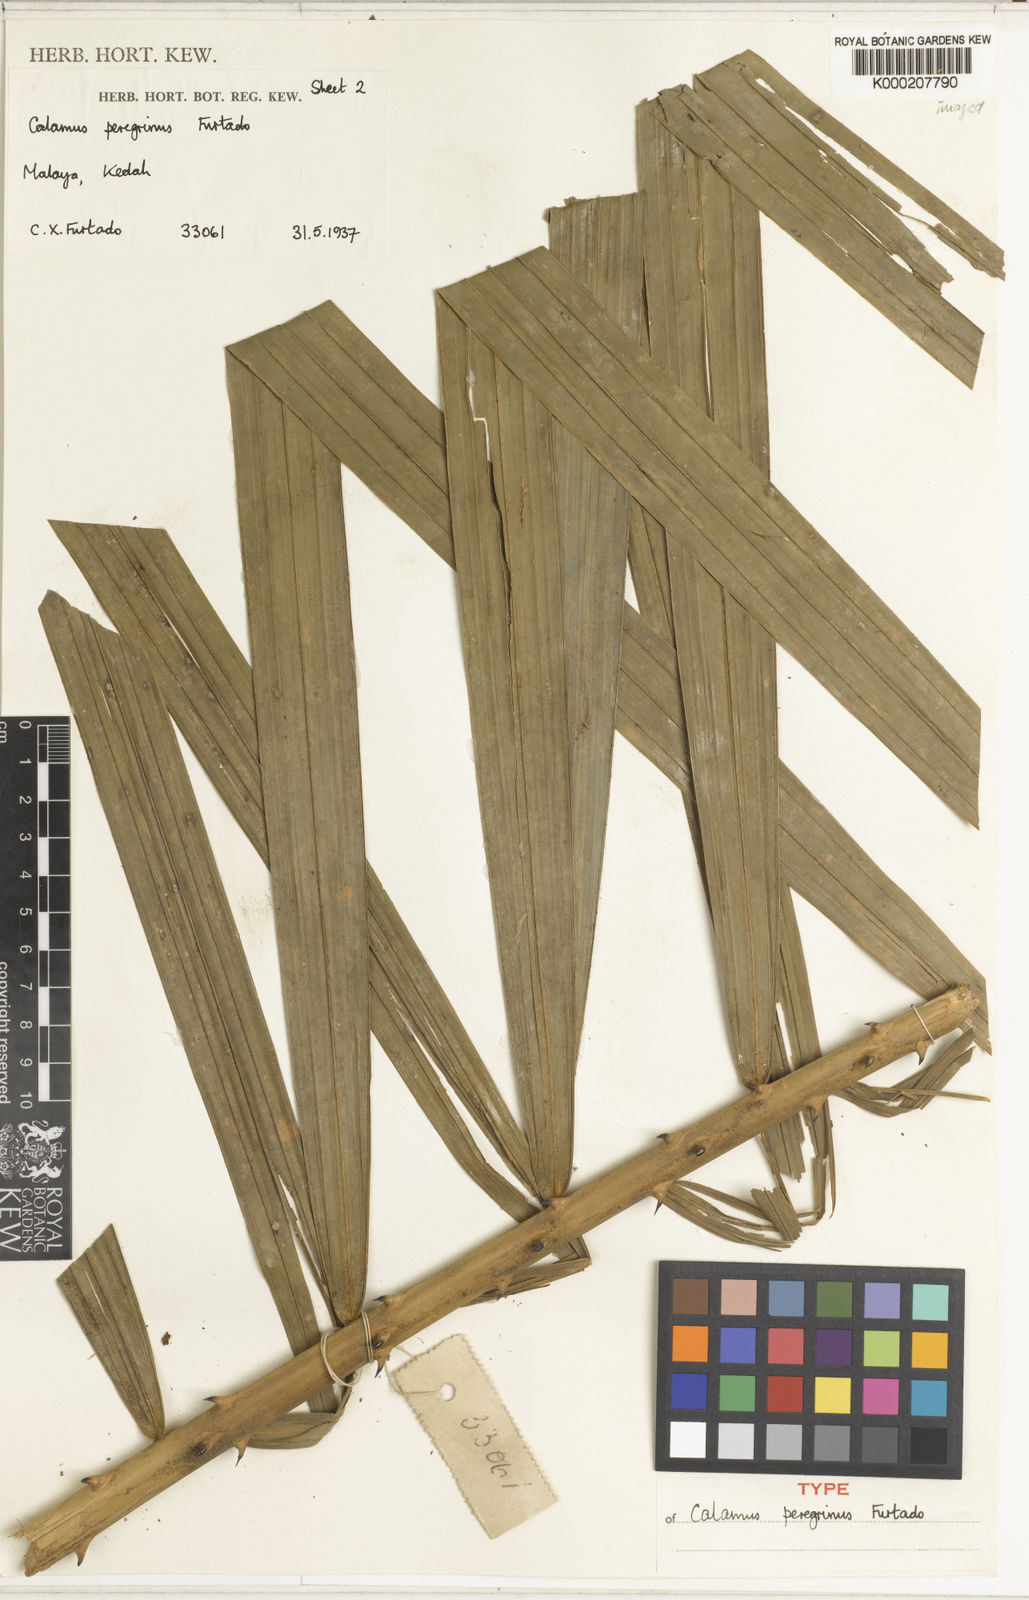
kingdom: Plantae
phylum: Tracheophyta
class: Liliopsida
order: Arecales
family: Arecaceae
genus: Calamus
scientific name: Calamus peregrinus
